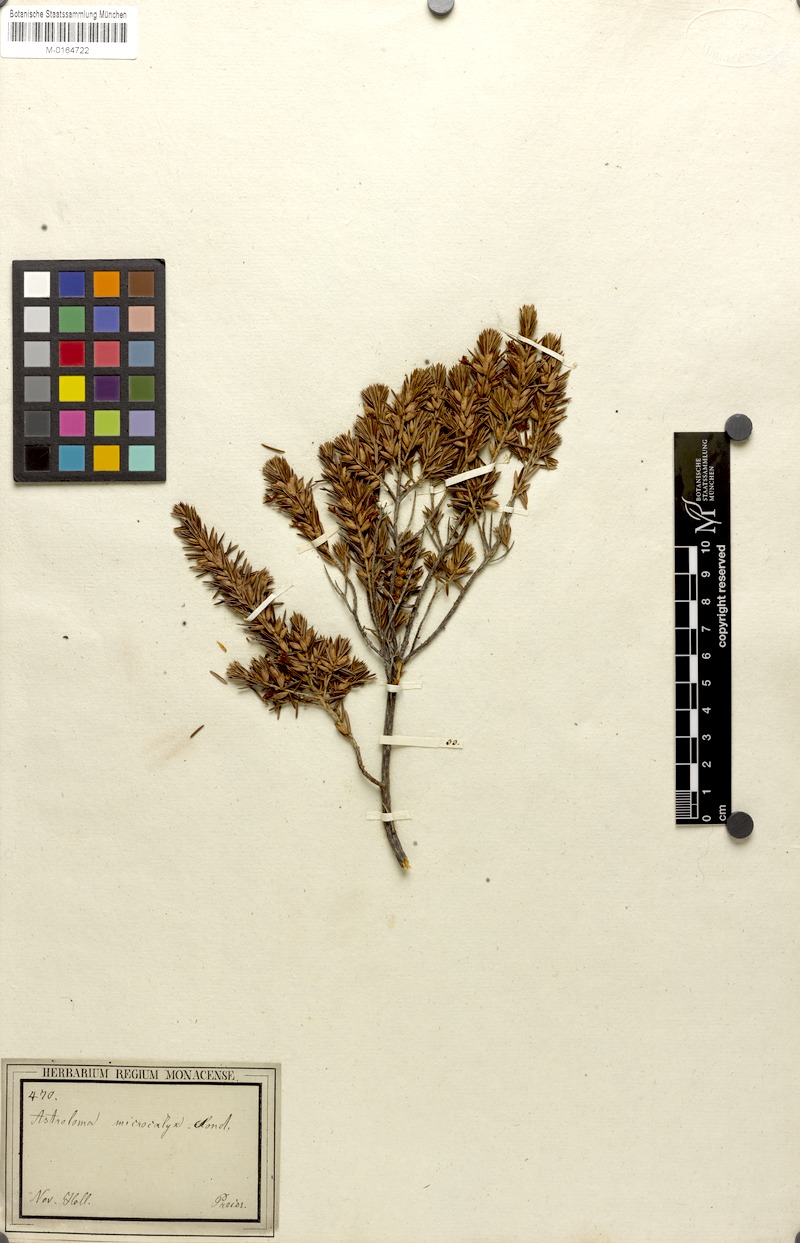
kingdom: Plantae
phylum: Tracheophyta
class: Magnoliopsida
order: Ericales
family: Ericaceae
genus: Styphelia
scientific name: Styphelia microcalyx
